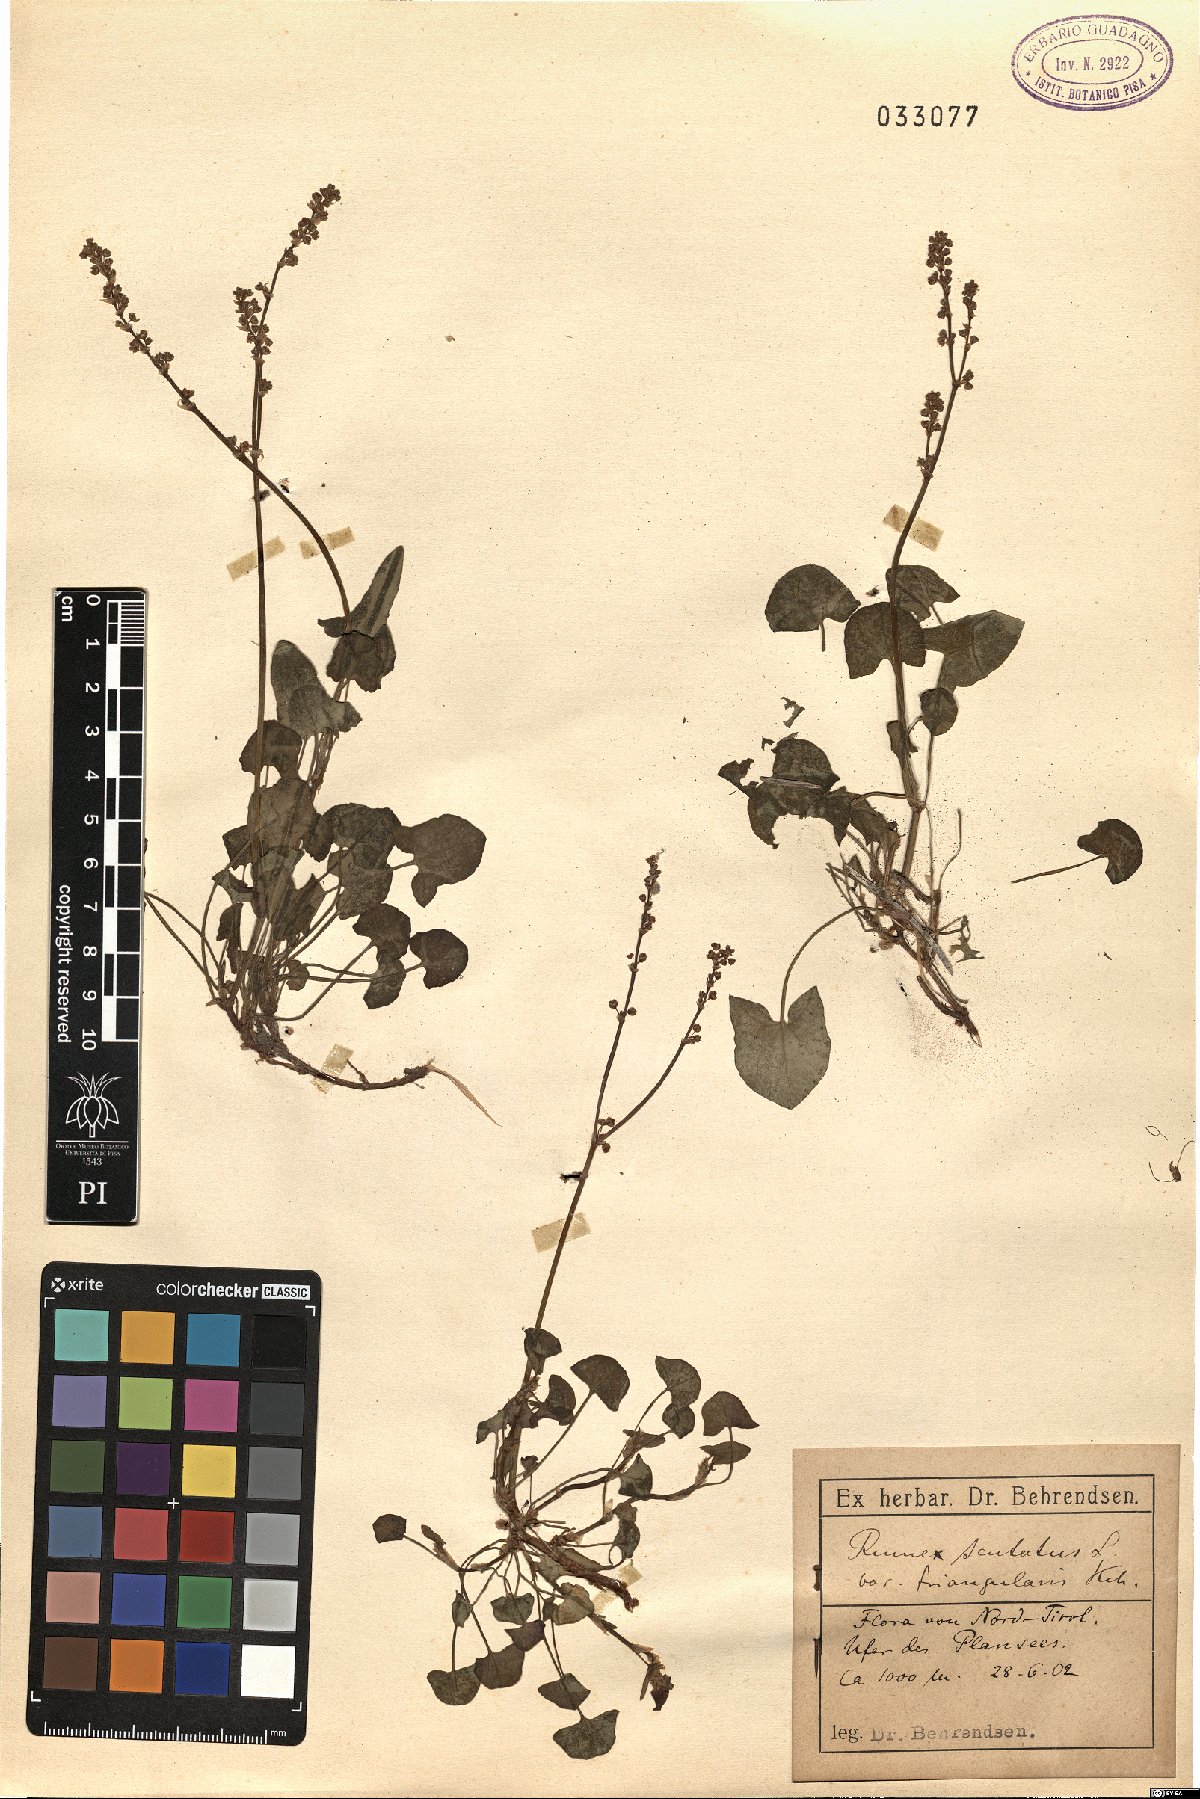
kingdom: Plantae
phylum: Tracheophyta
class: Magnoliopsida
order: Caryophyllales
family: Polygonaceae
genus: Rumex
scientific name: Rumex scutatus
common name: French sorrel
